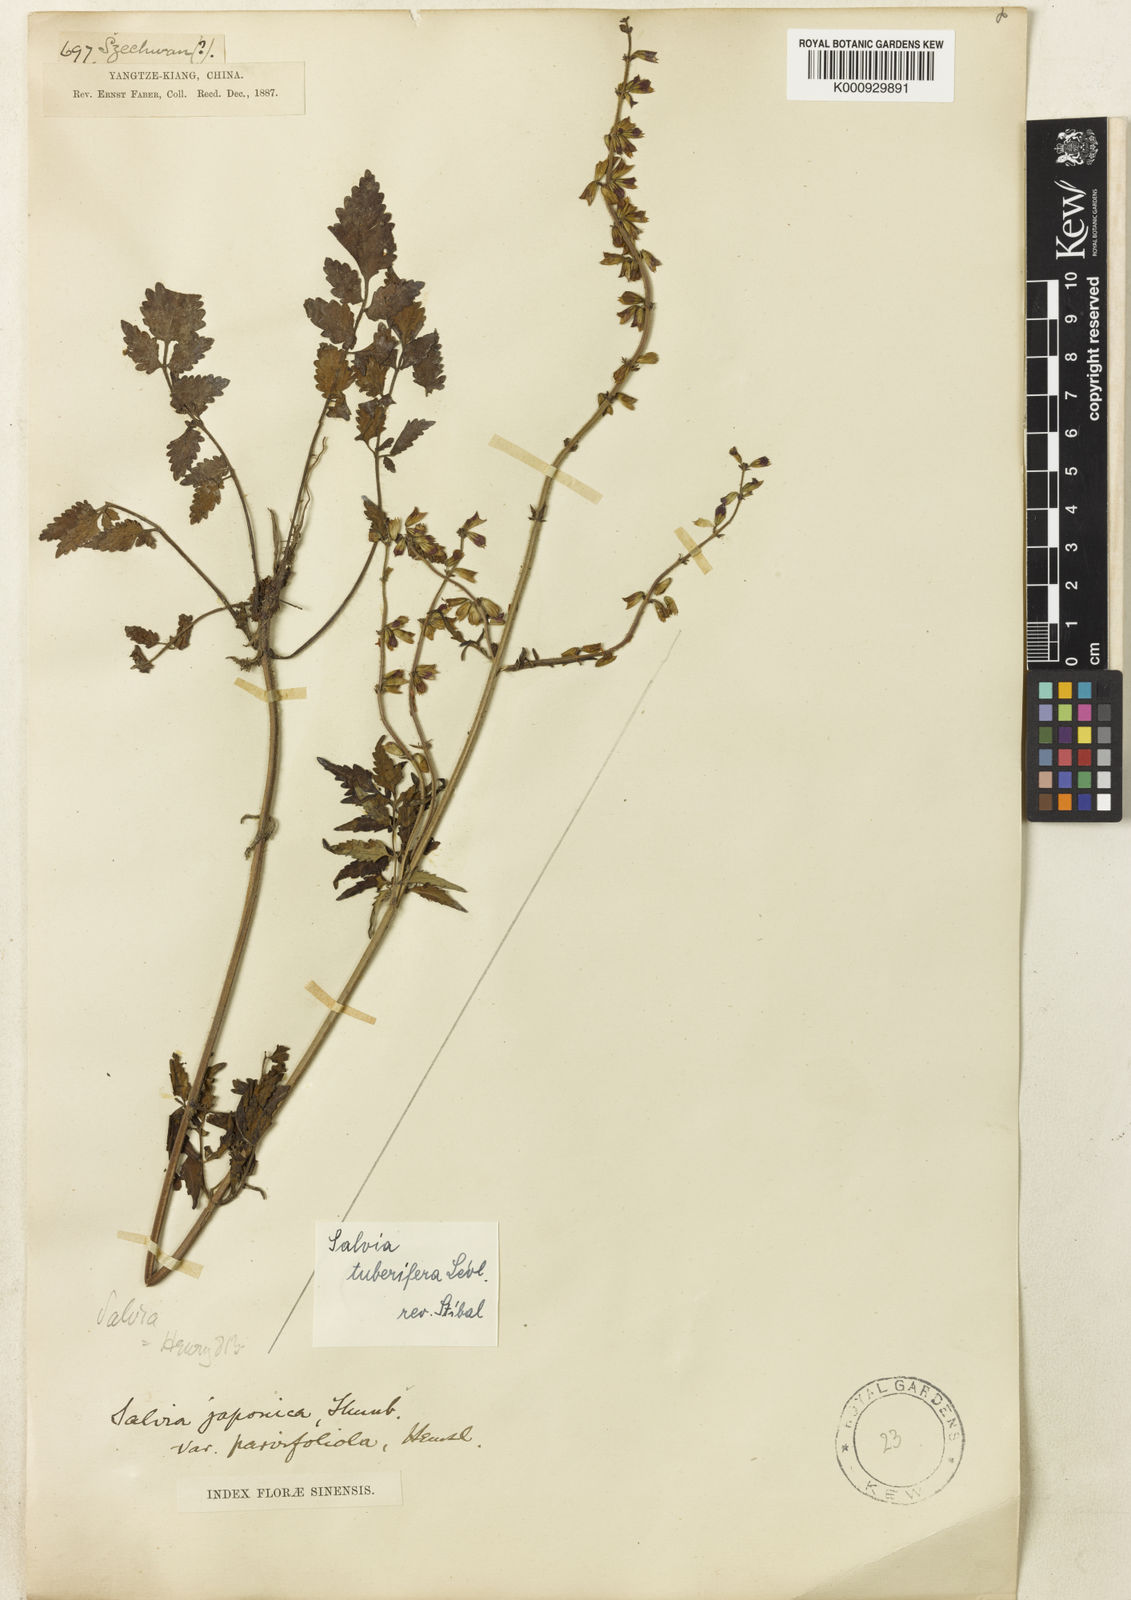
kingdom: Plantae
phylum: Tracheophyta
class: Magnoliopsida
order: Lamiales
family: Lamiaceae
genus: Salvia
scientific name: Salvia
